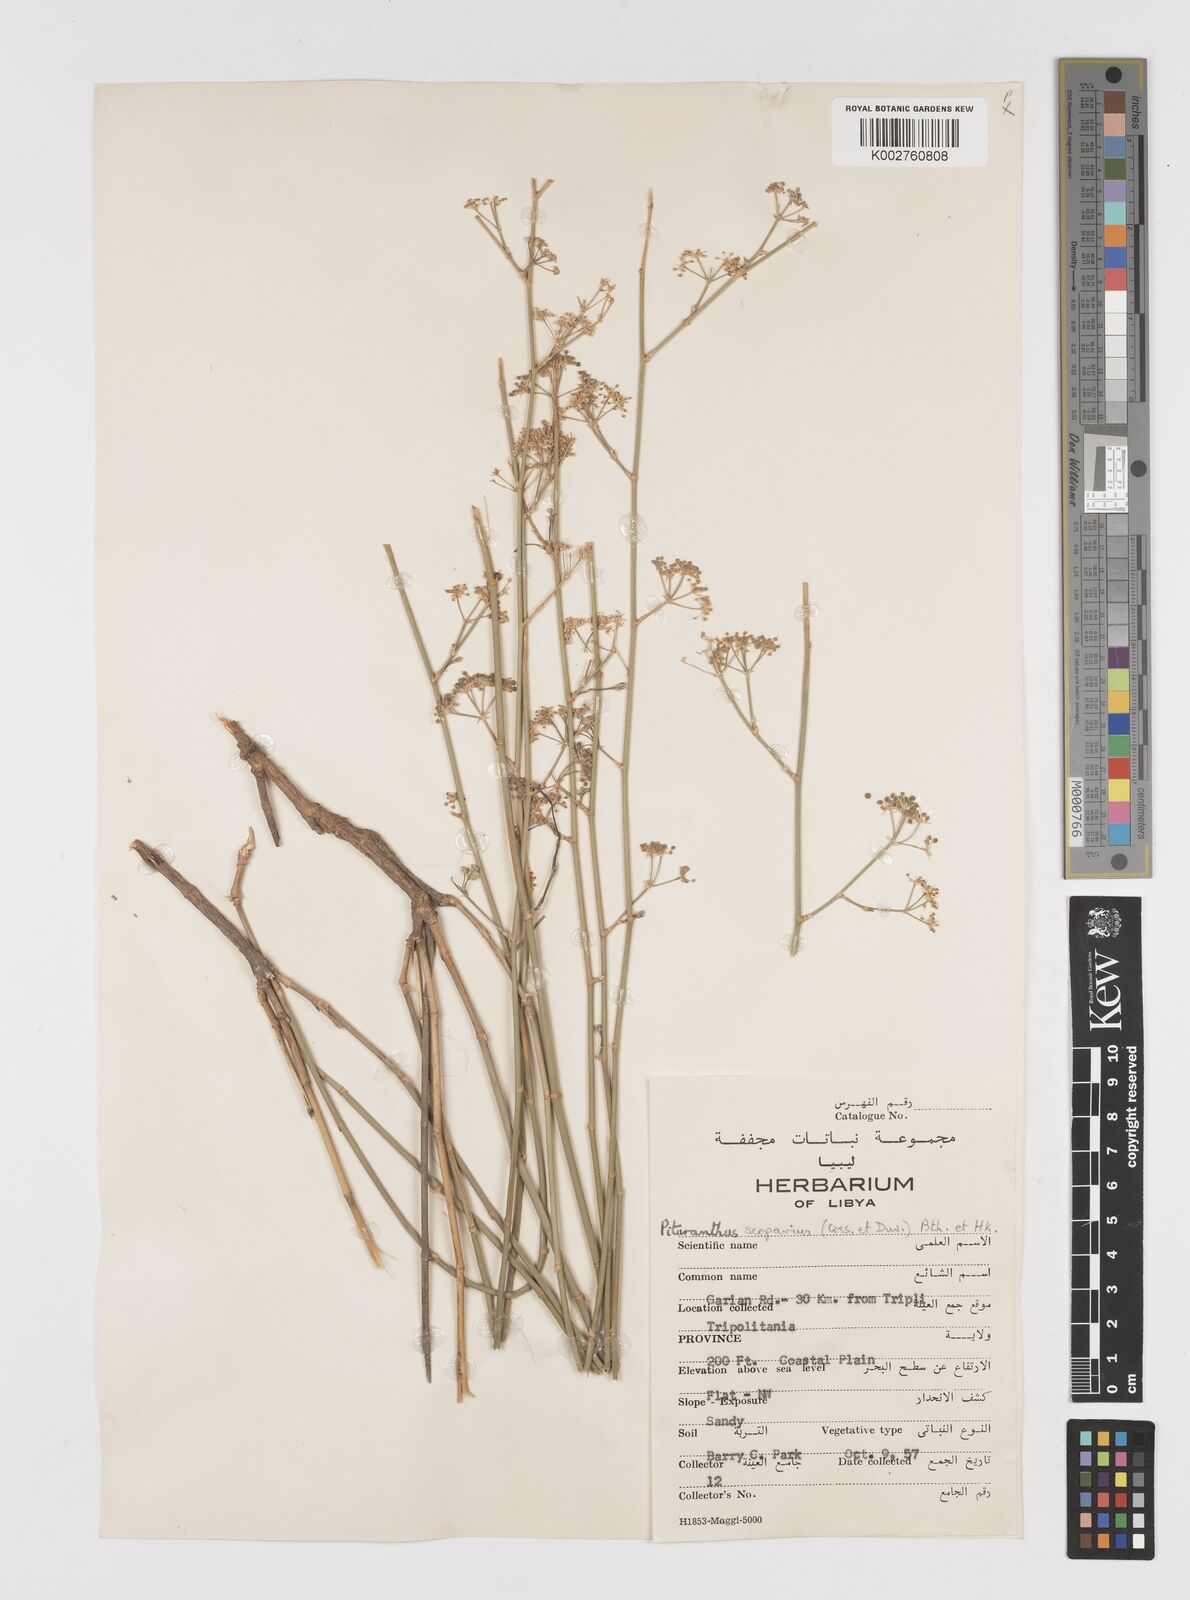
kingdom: Plantae
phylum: Tracheophyta
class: Magnoliopsida
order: Apiales
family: Apiaceae
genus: Deverra
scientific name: Deverra scoparia
